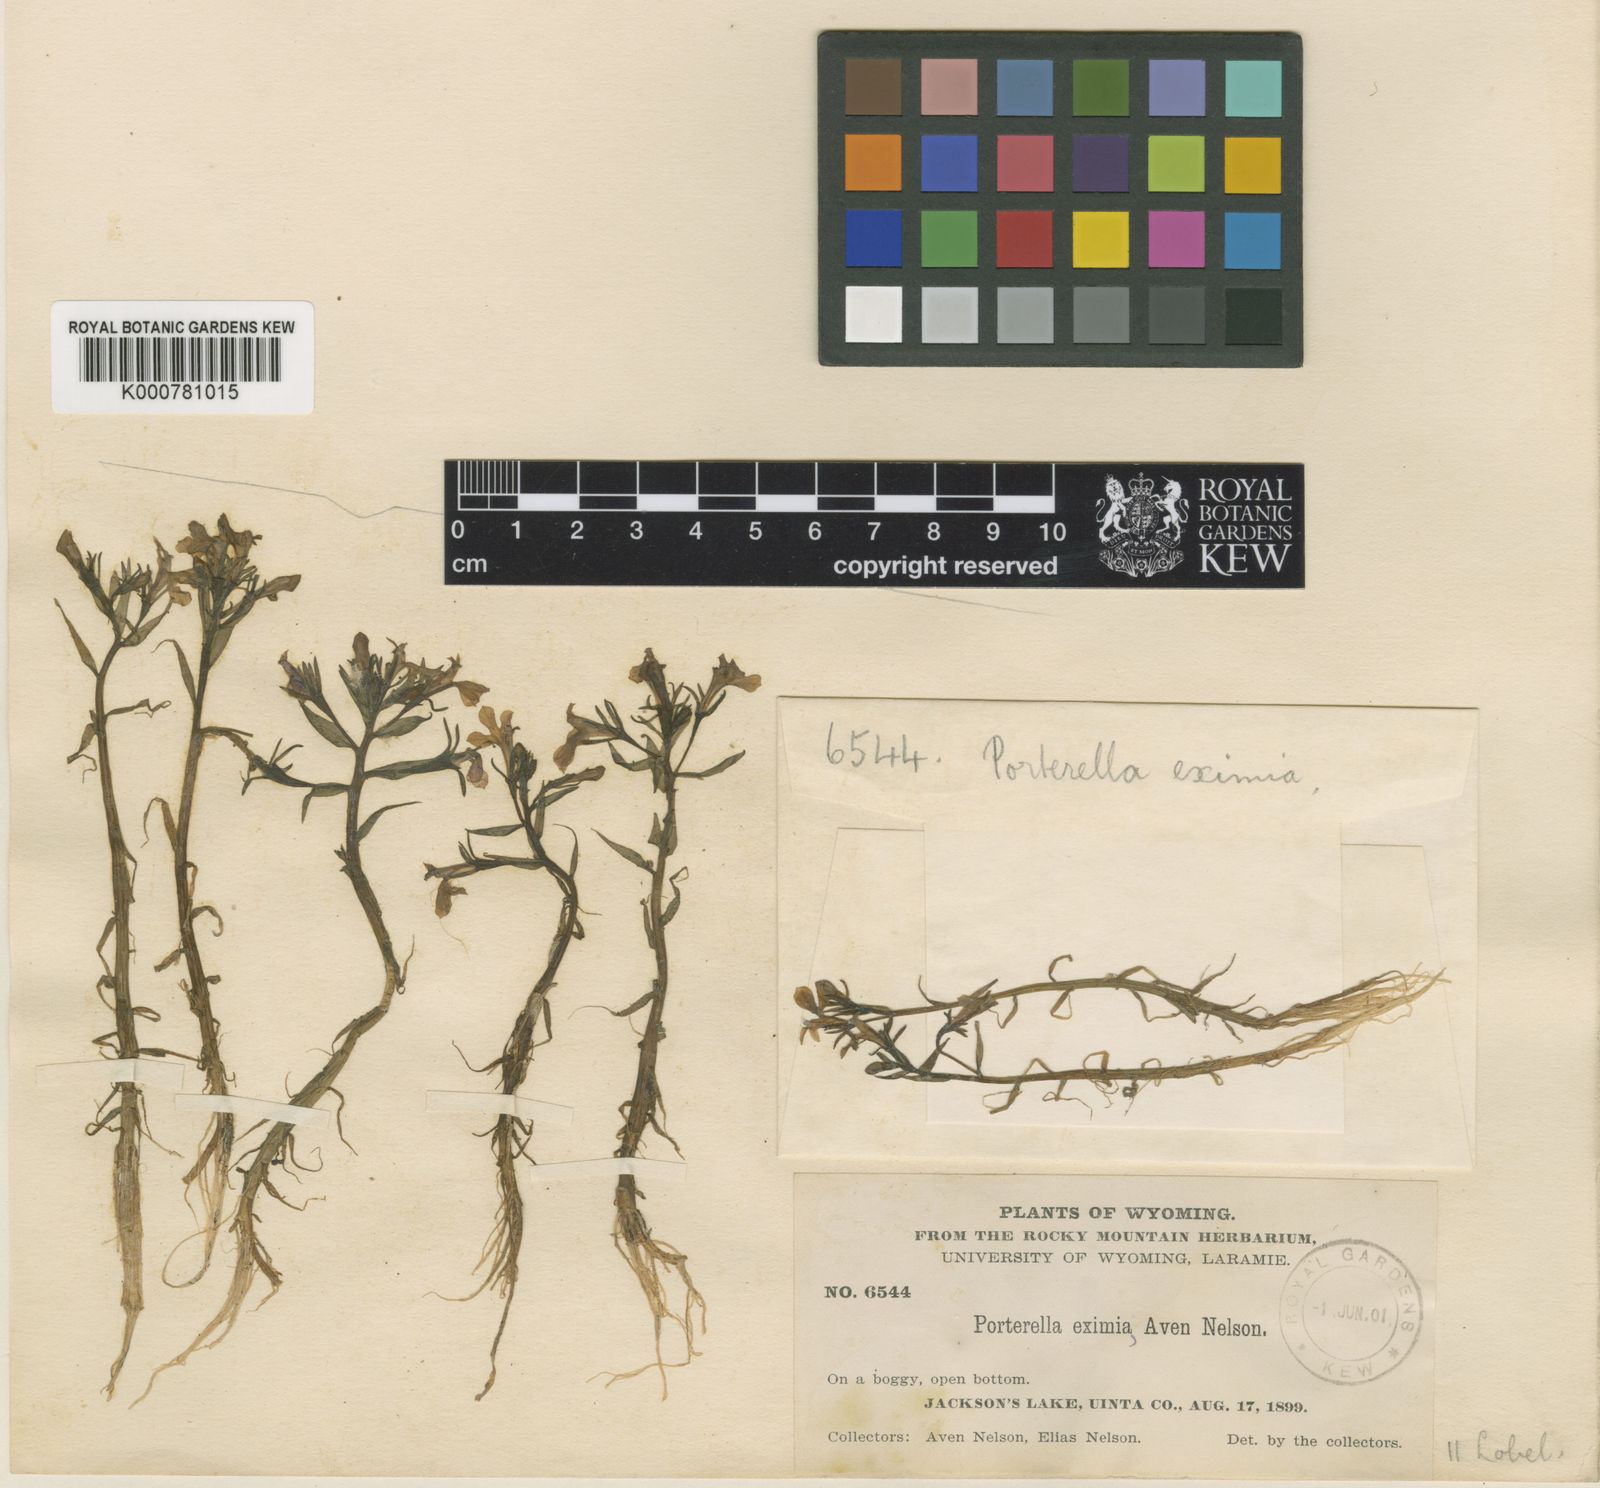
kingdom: Plantae
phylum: Tracheophyta
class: Magnoliopsida
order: Asterales
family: Campanulaceae
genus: Porterella
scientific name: Porterella carnosula
